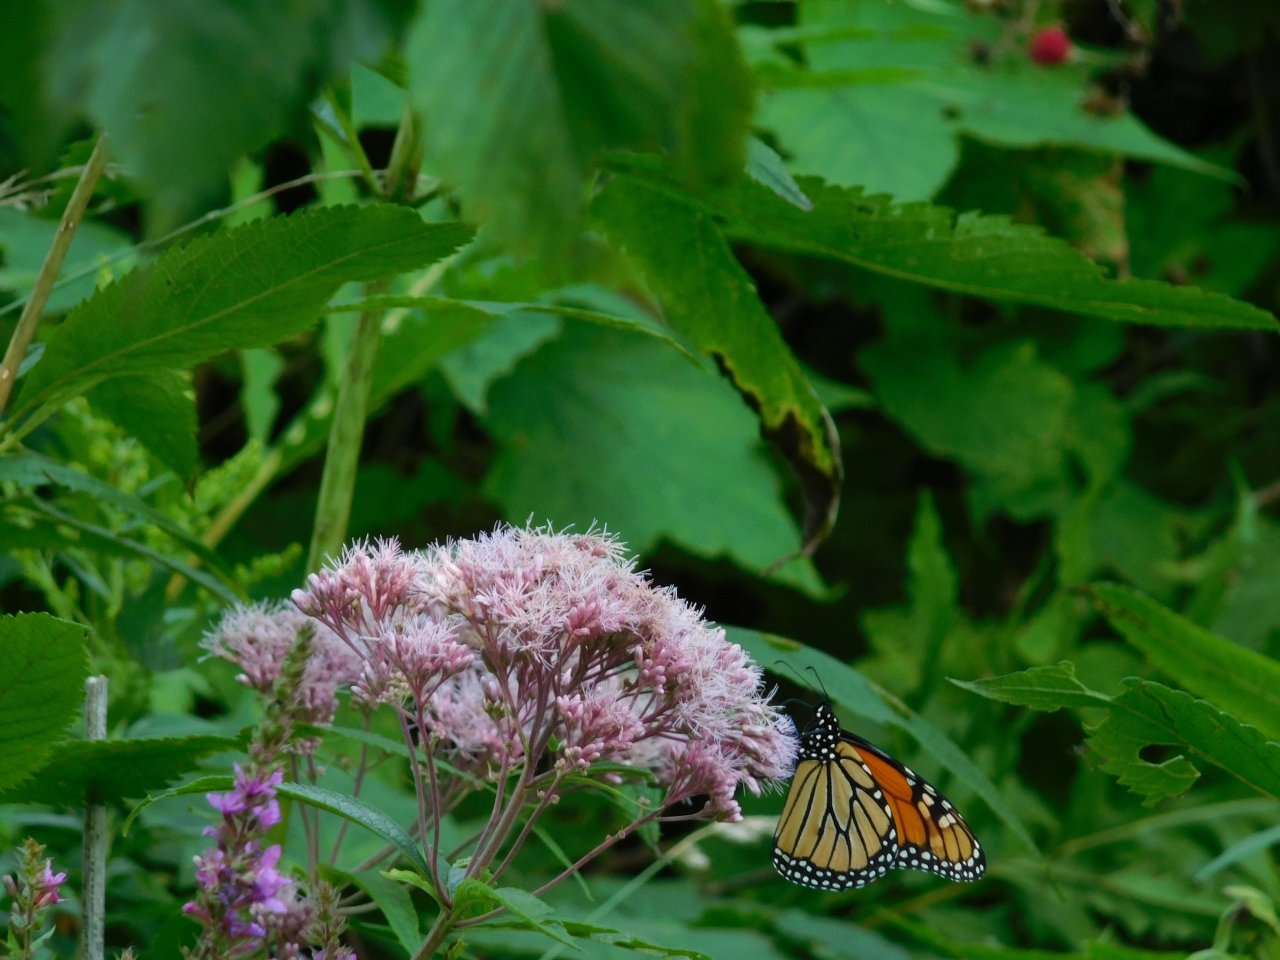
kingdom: Animalia
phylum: Arthropoda
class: Insecta
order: Lepidoptera
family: Nymphalidae
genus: Danaus
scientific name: Danaus plexippus
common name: Monarch
